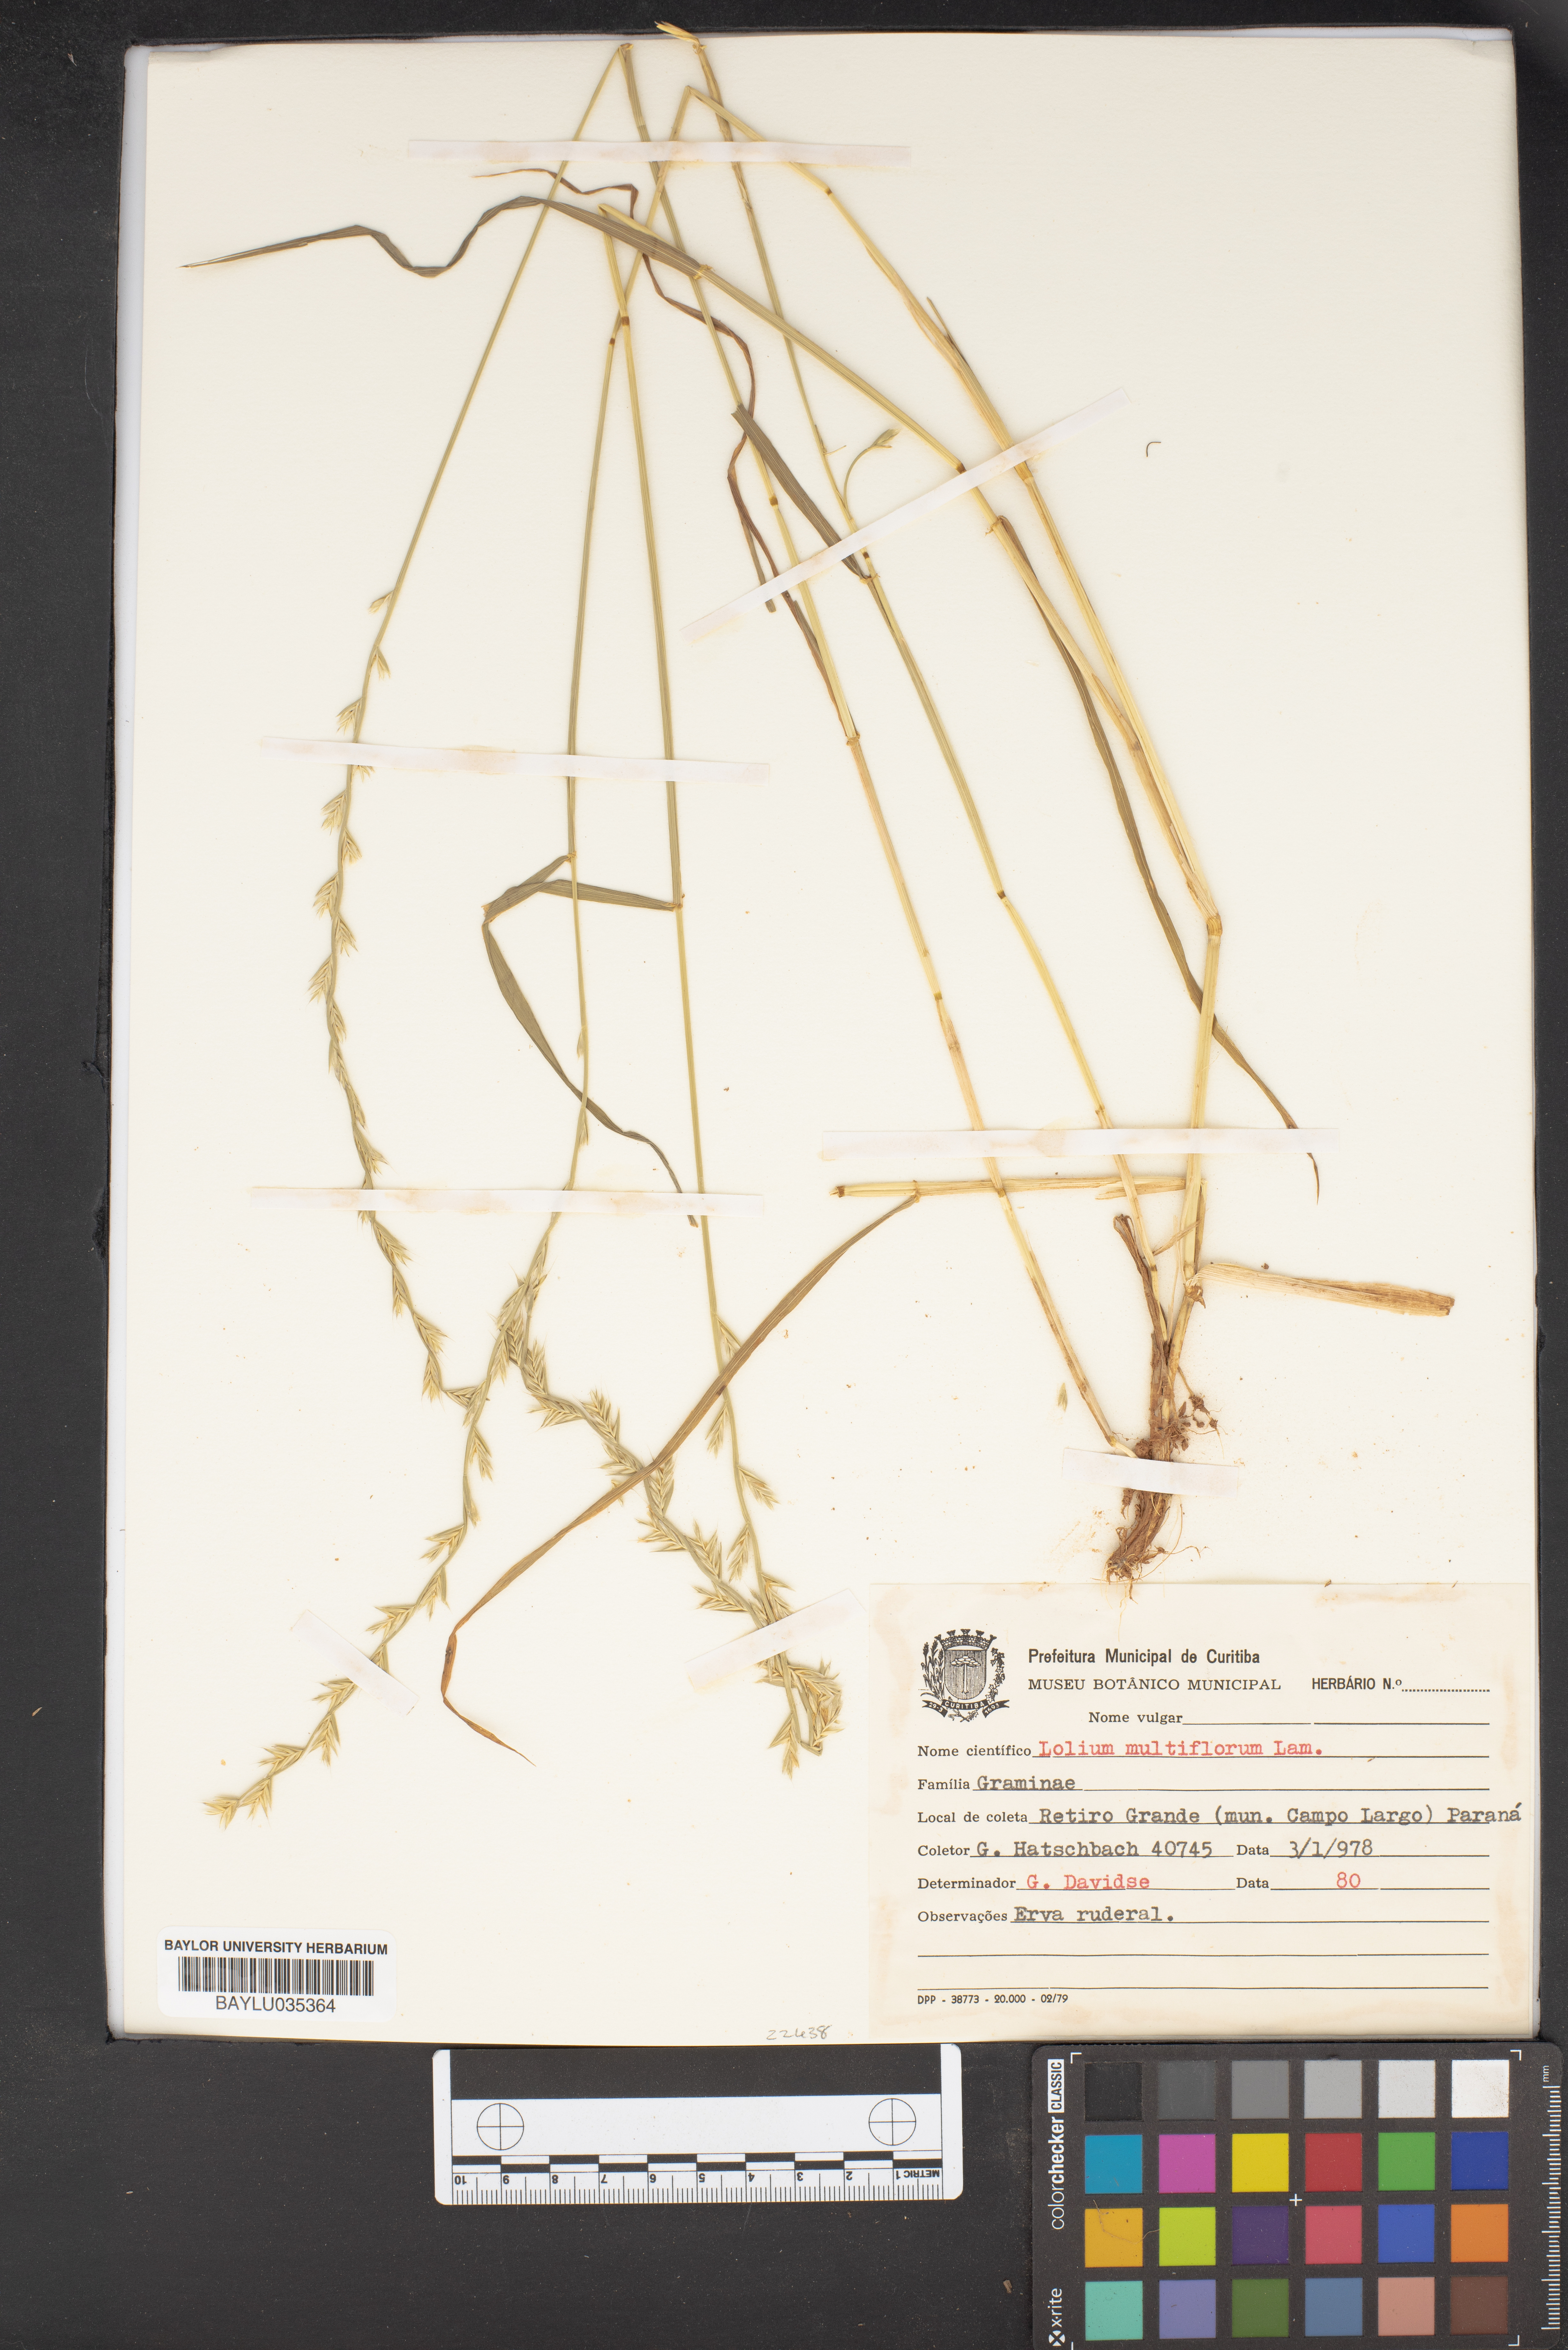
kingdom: Plantae
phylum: Tracheophyta
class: Liliopsida
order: Poales
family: Poaceae
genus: Lolium
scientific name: Lolium multiflorum
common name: Annual ryegrass
